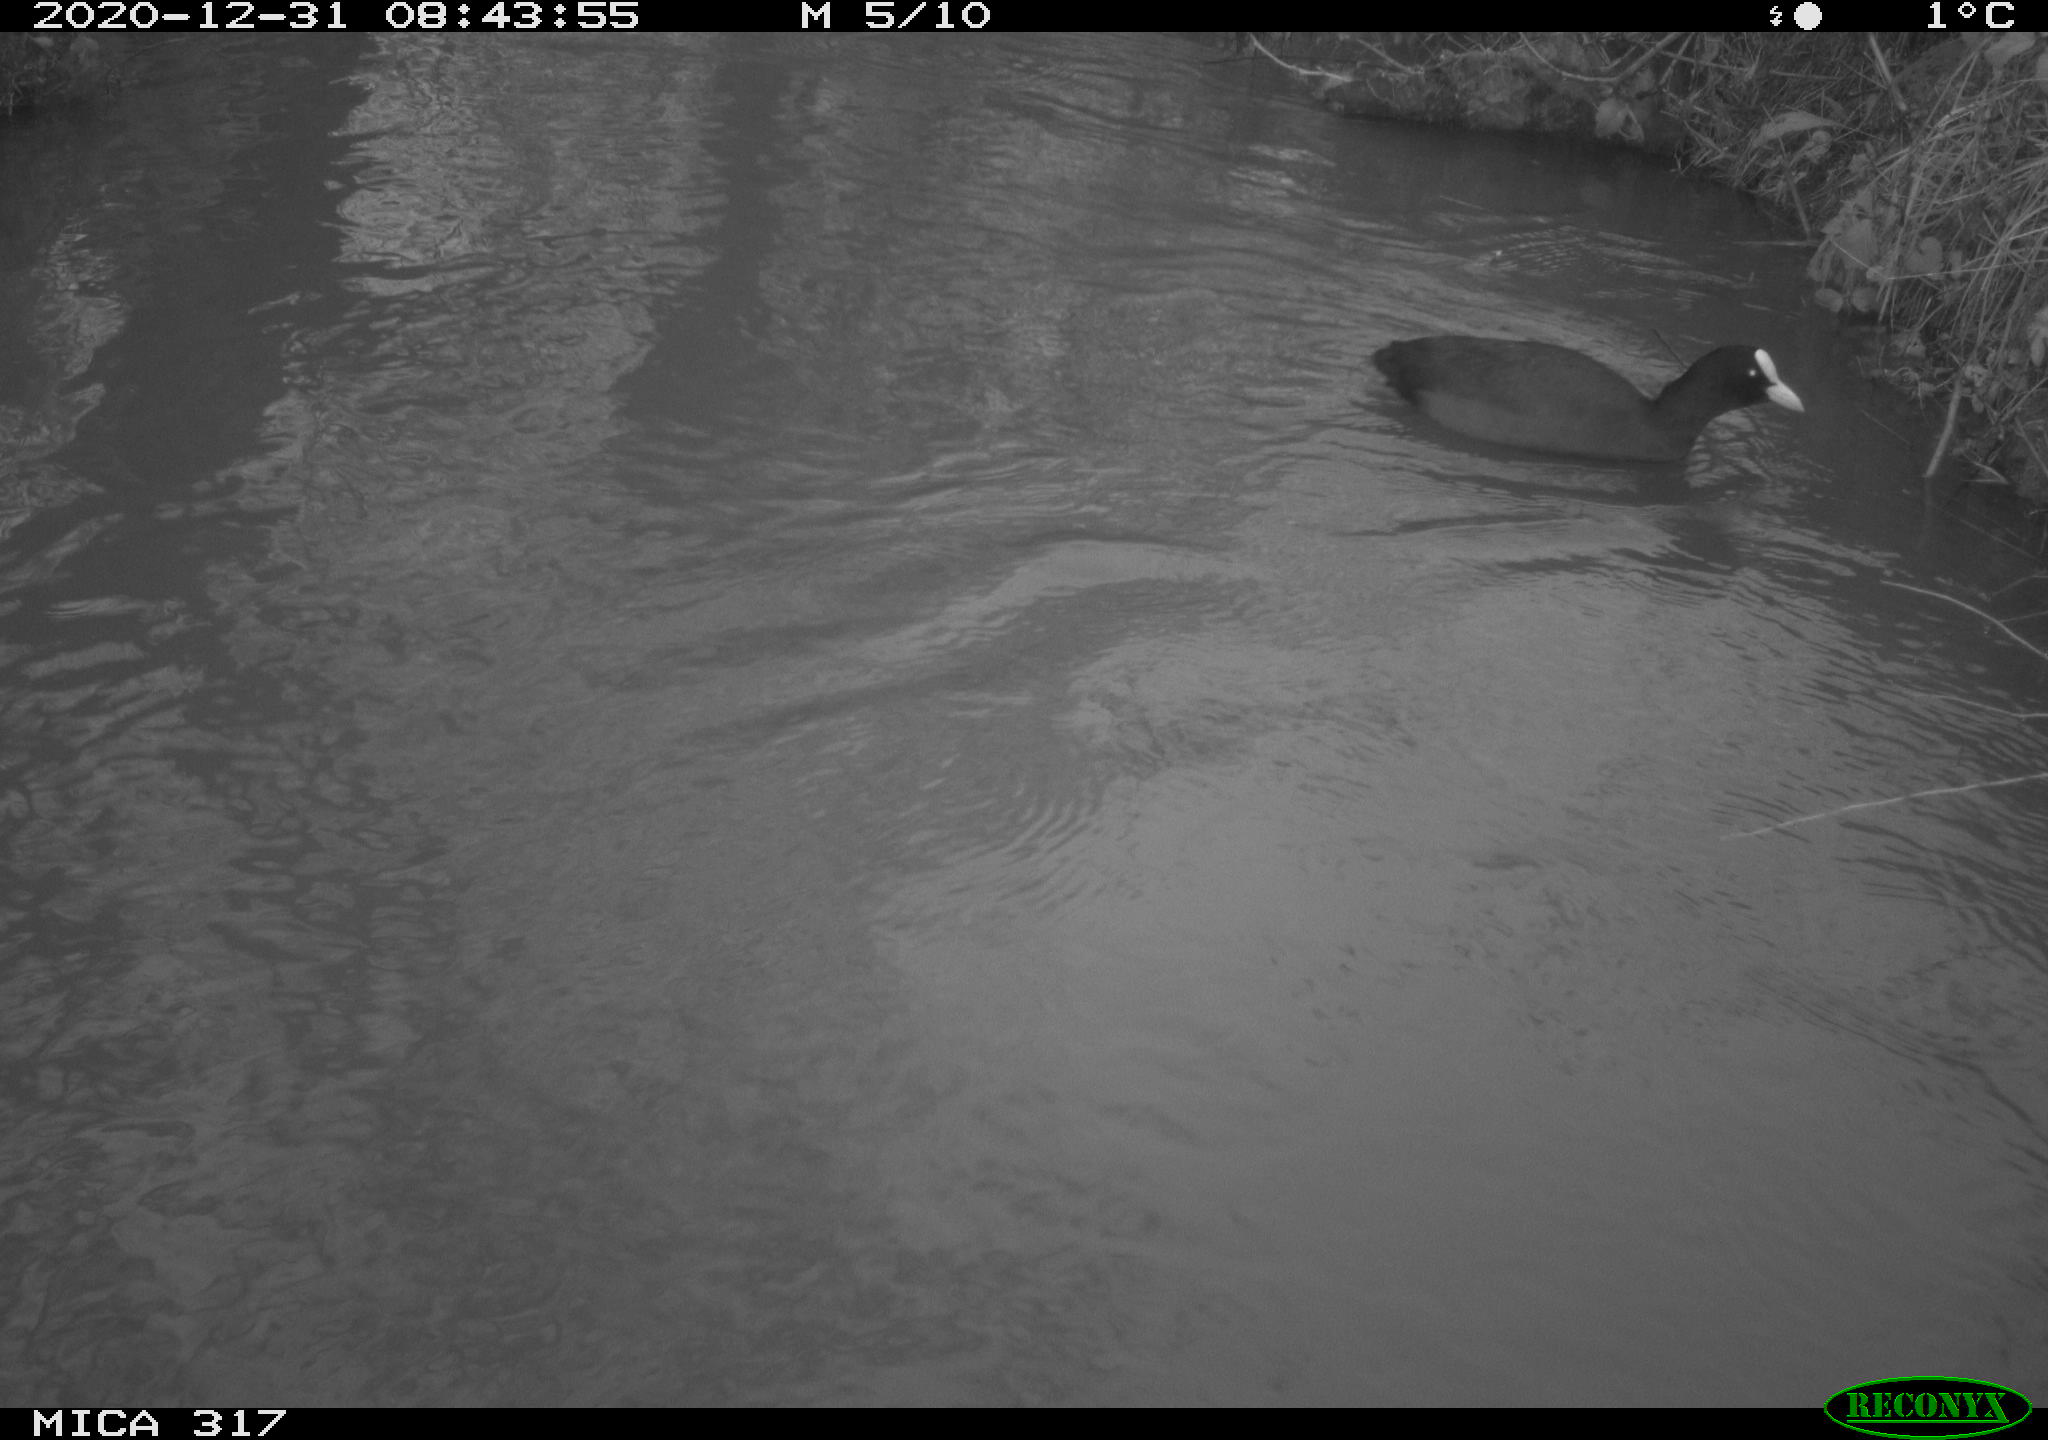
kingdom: Animalia
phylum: Chordata
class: Aves
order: Gruiformes
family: Rallidae
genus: Fulica
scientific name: Fulica atra
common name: Eurasian coot
